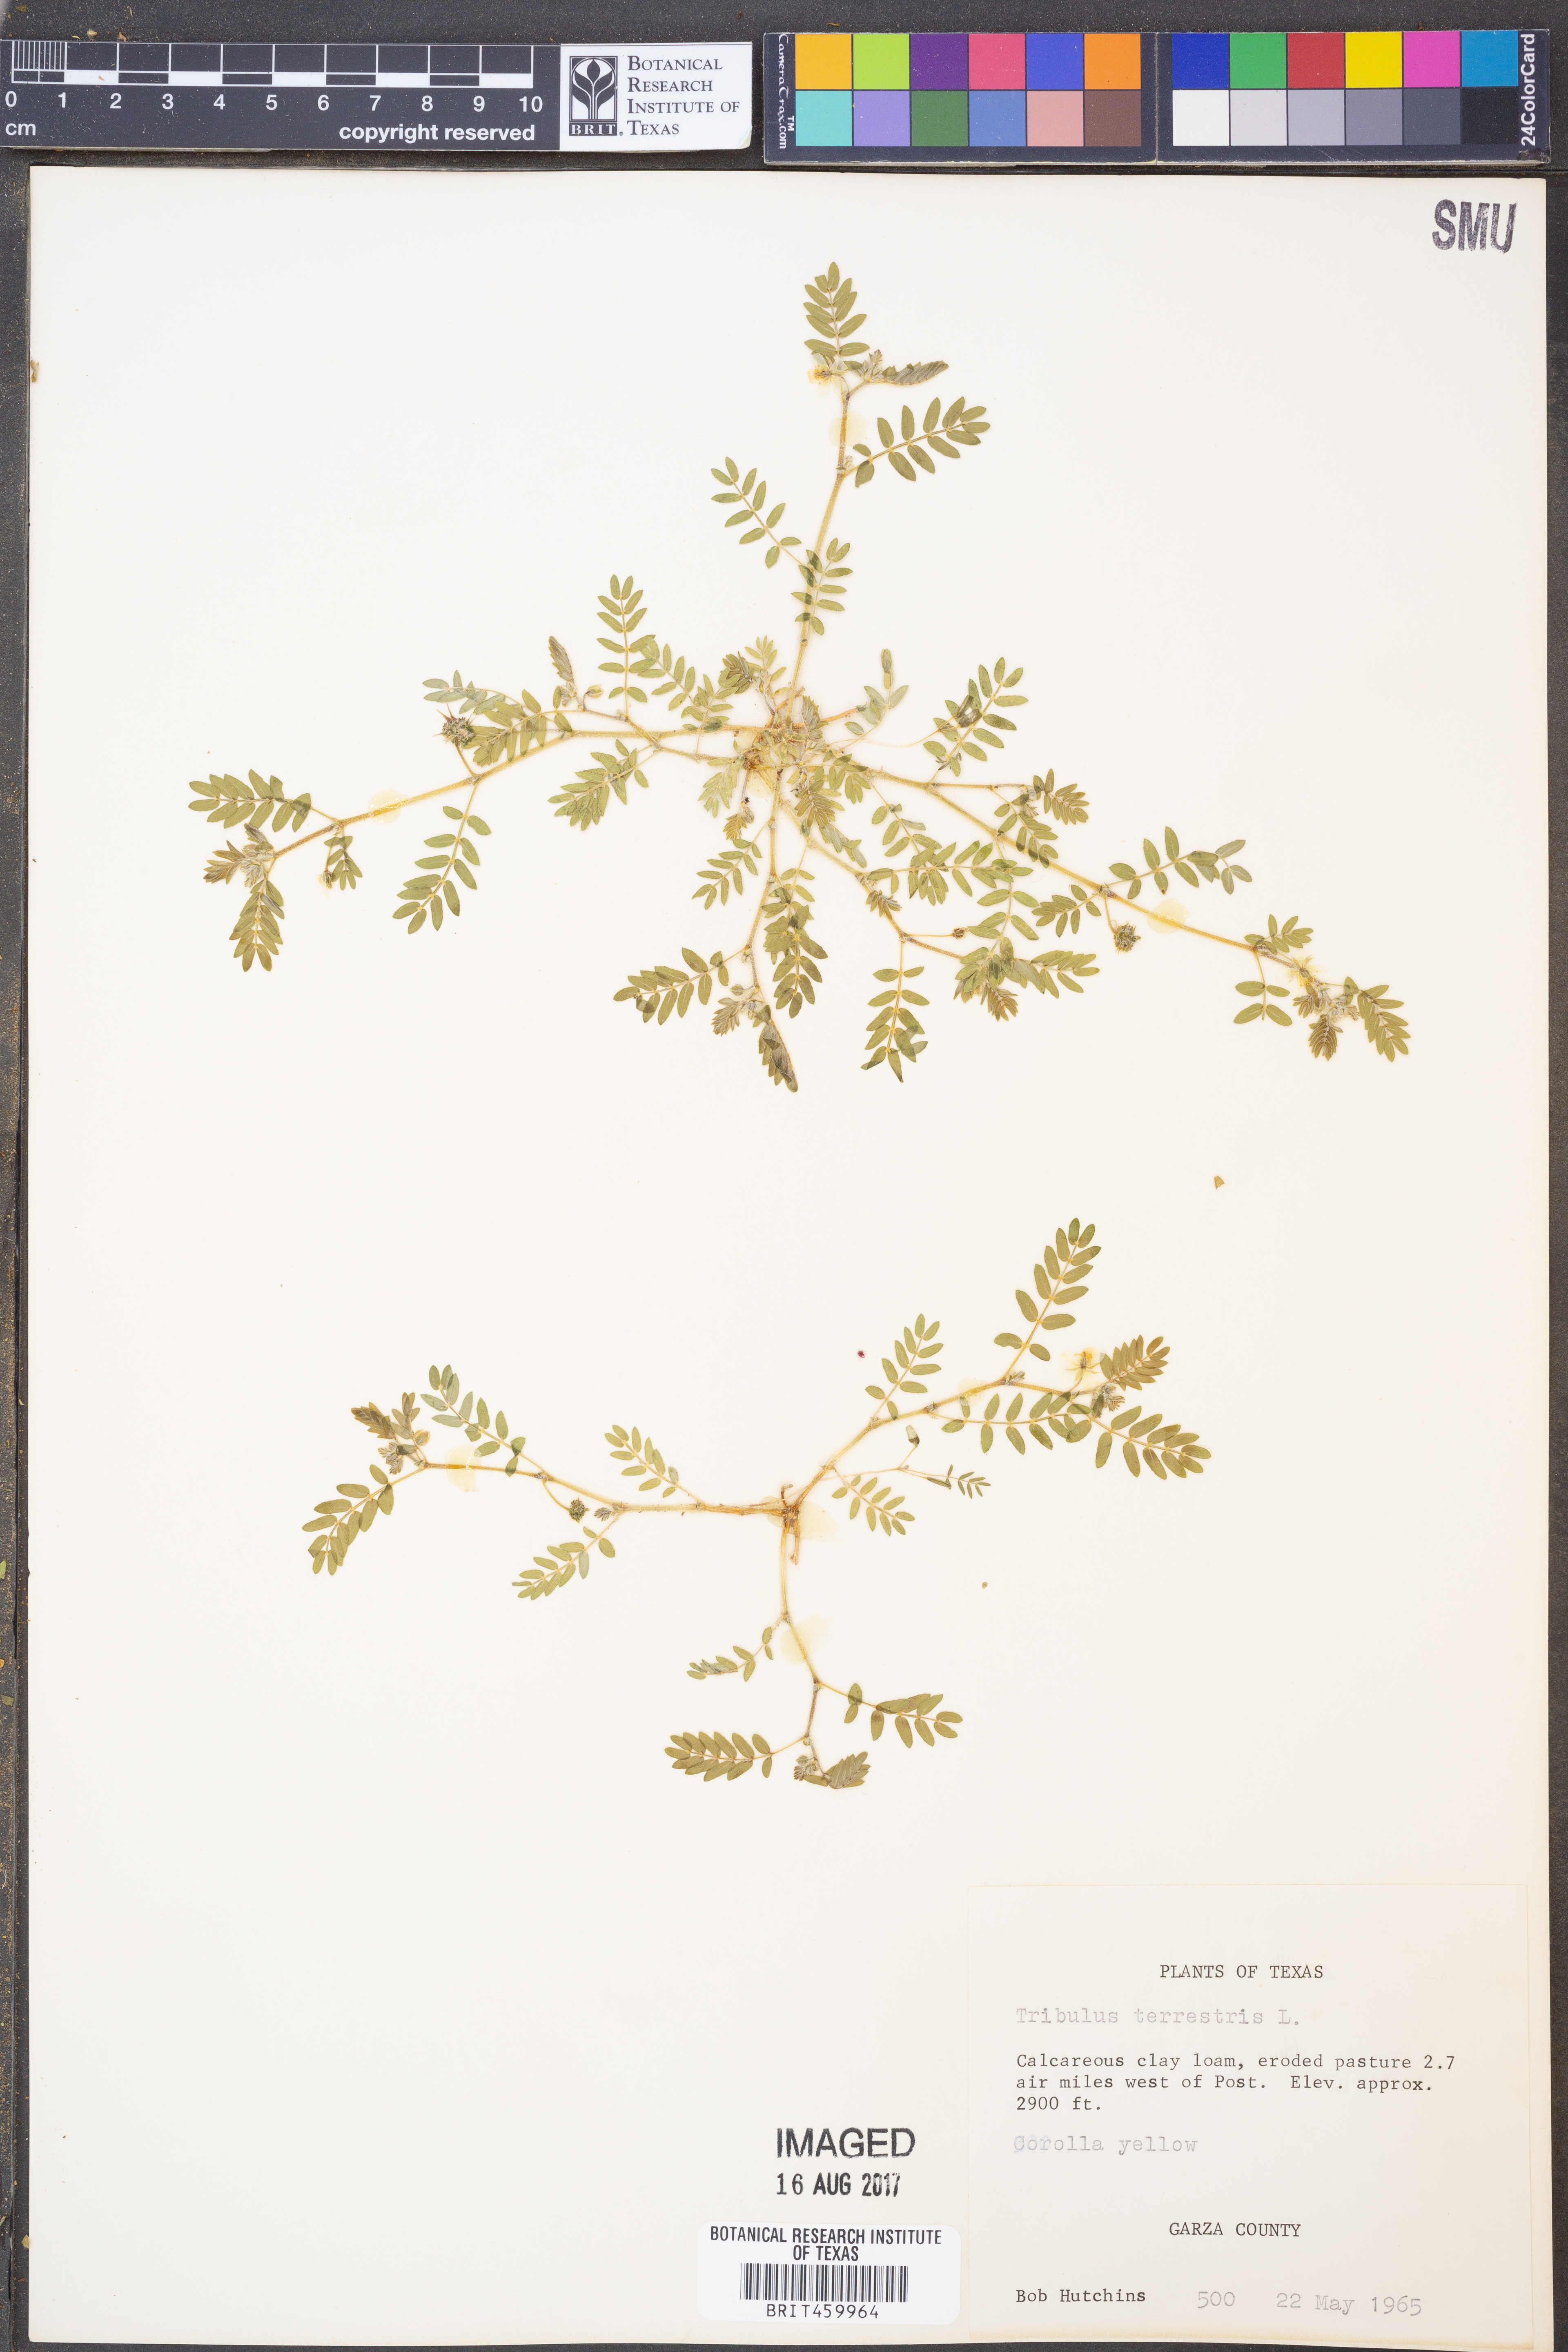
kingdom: Plantae
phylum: Tracheophyta
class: Magnoliopsida
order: Zygophyllales
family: Zygophyllaceae
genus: Tribulus
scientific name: Tribulus terrestris
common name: Puncturevine
